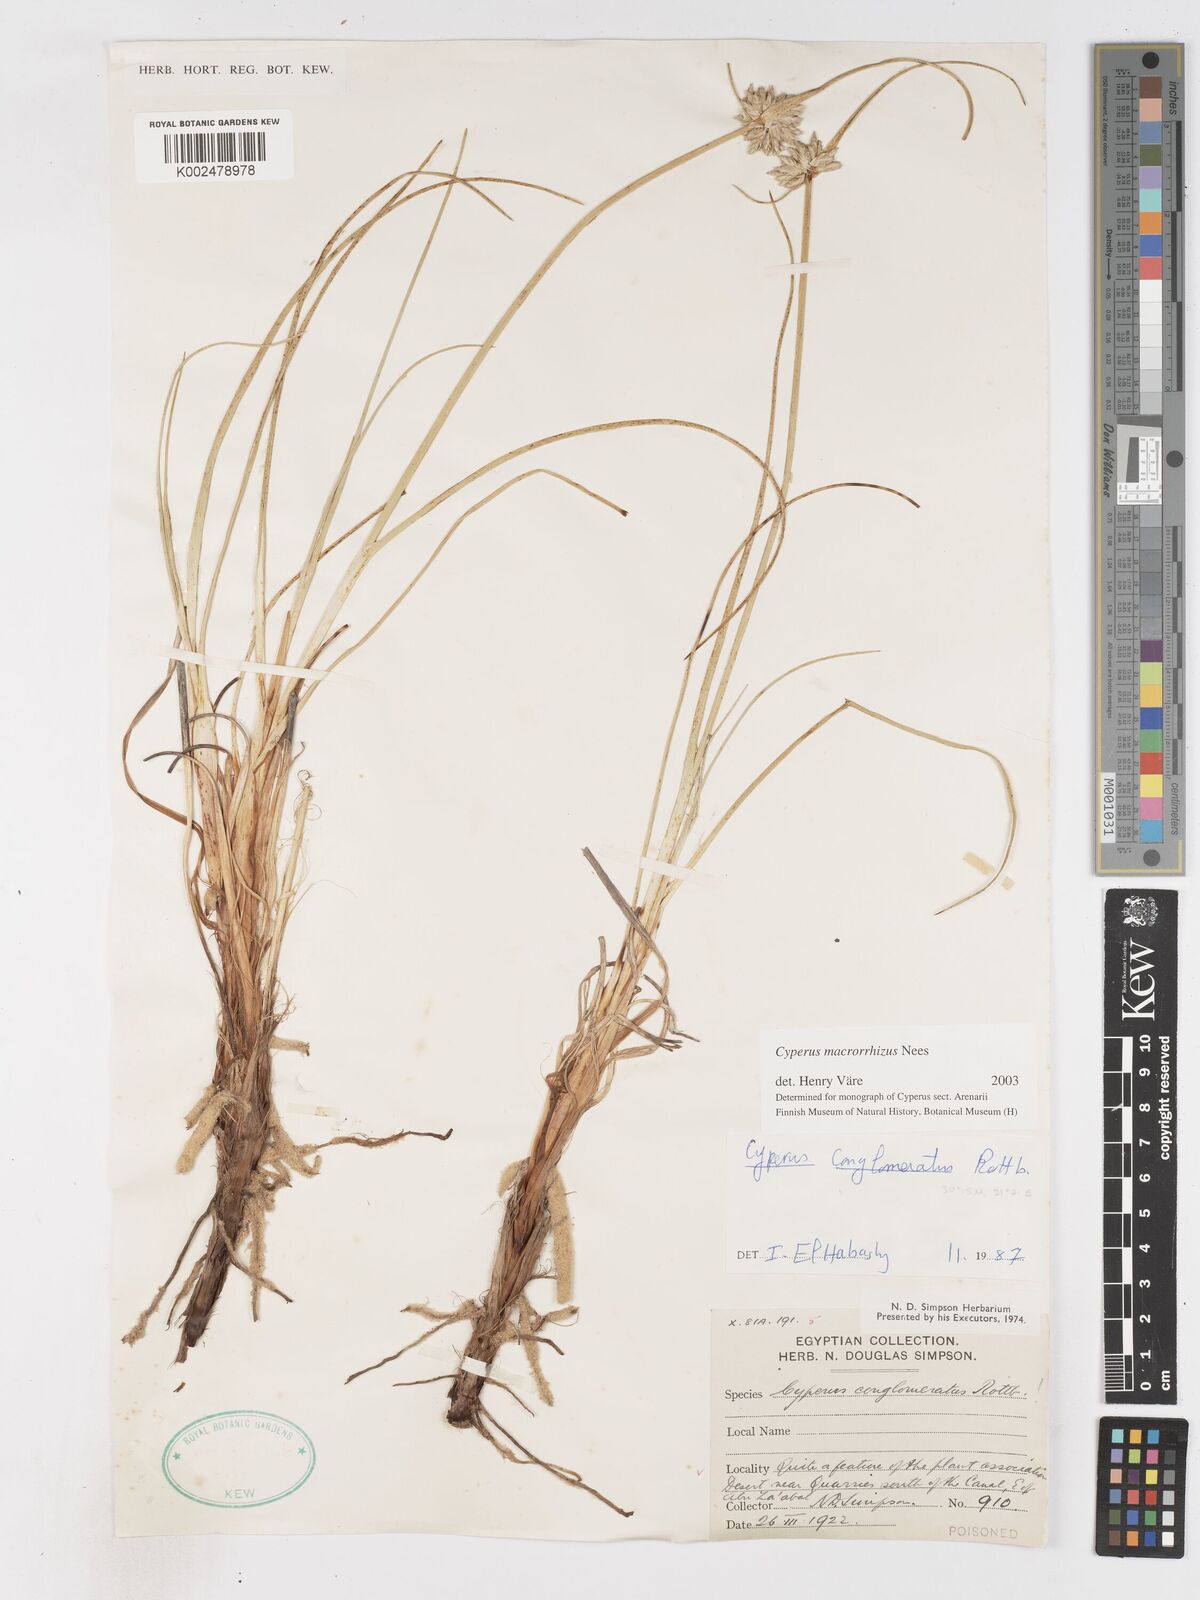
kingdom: Plantae
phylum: Tracheophyta
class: Liliopsida
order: Poales
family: Cyperaceae
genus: Cyperus
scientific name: Cyperus macrorrhizus
